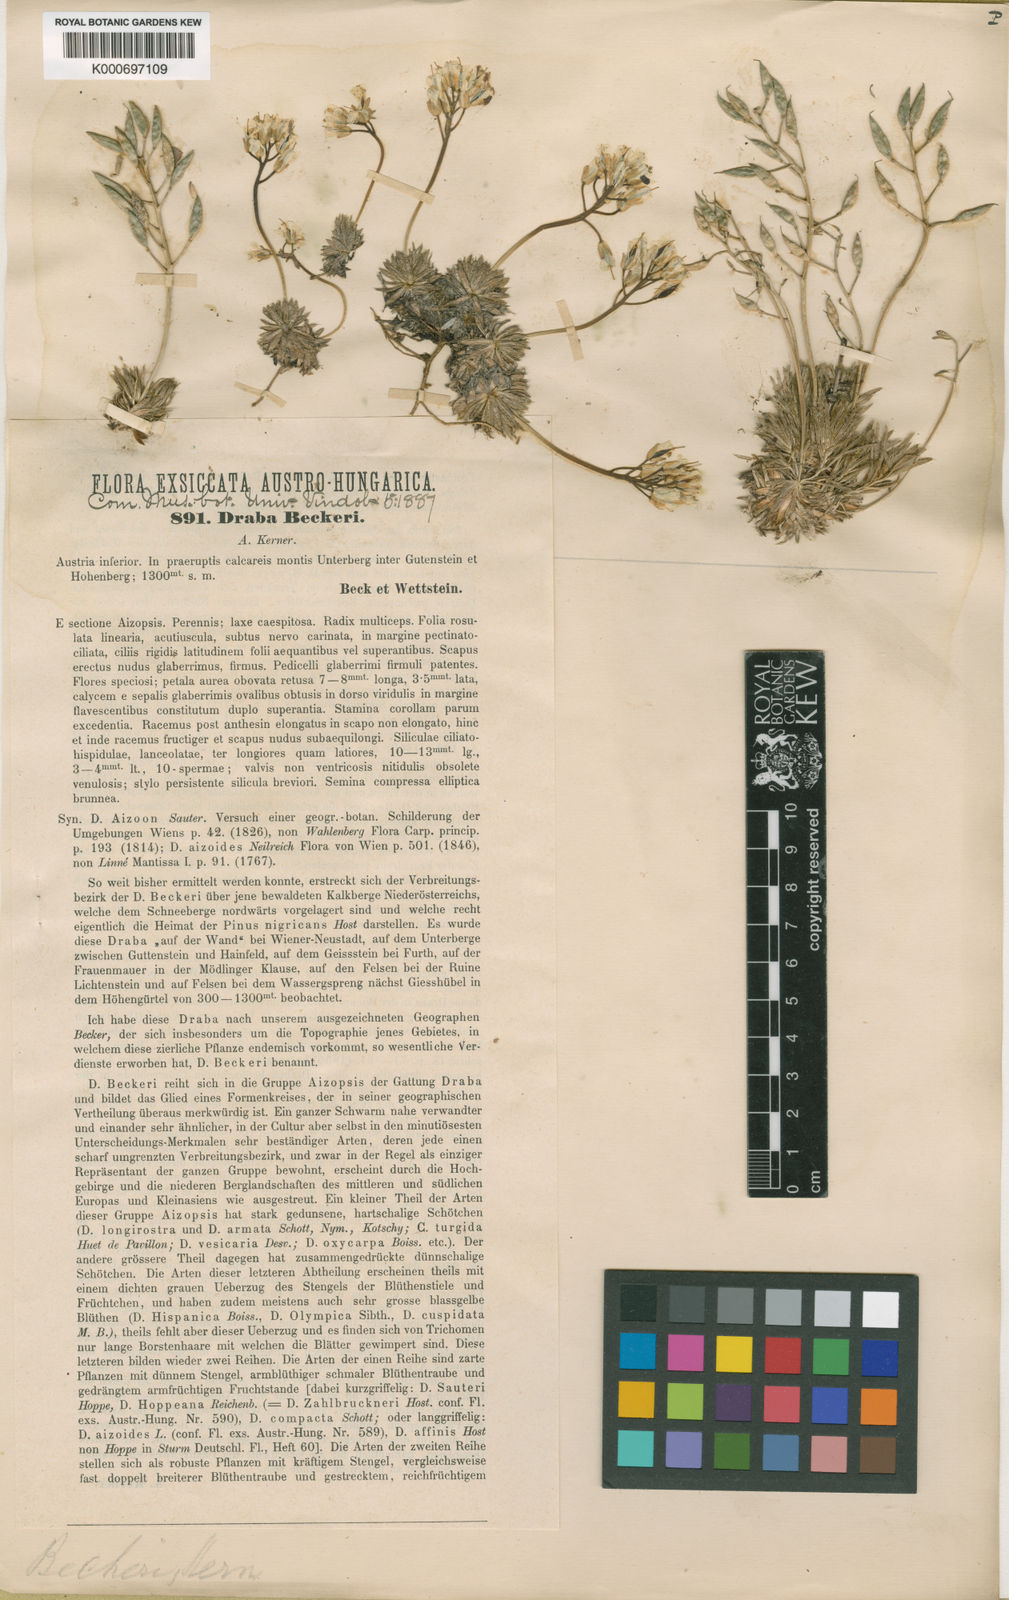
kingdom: Plantae
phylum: Tracheophyta
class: Magnoliopsida
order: Brassicales
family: Brassicaceae
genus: Draba
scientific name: Draba aizoides
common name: Yellow whitlowgrass
